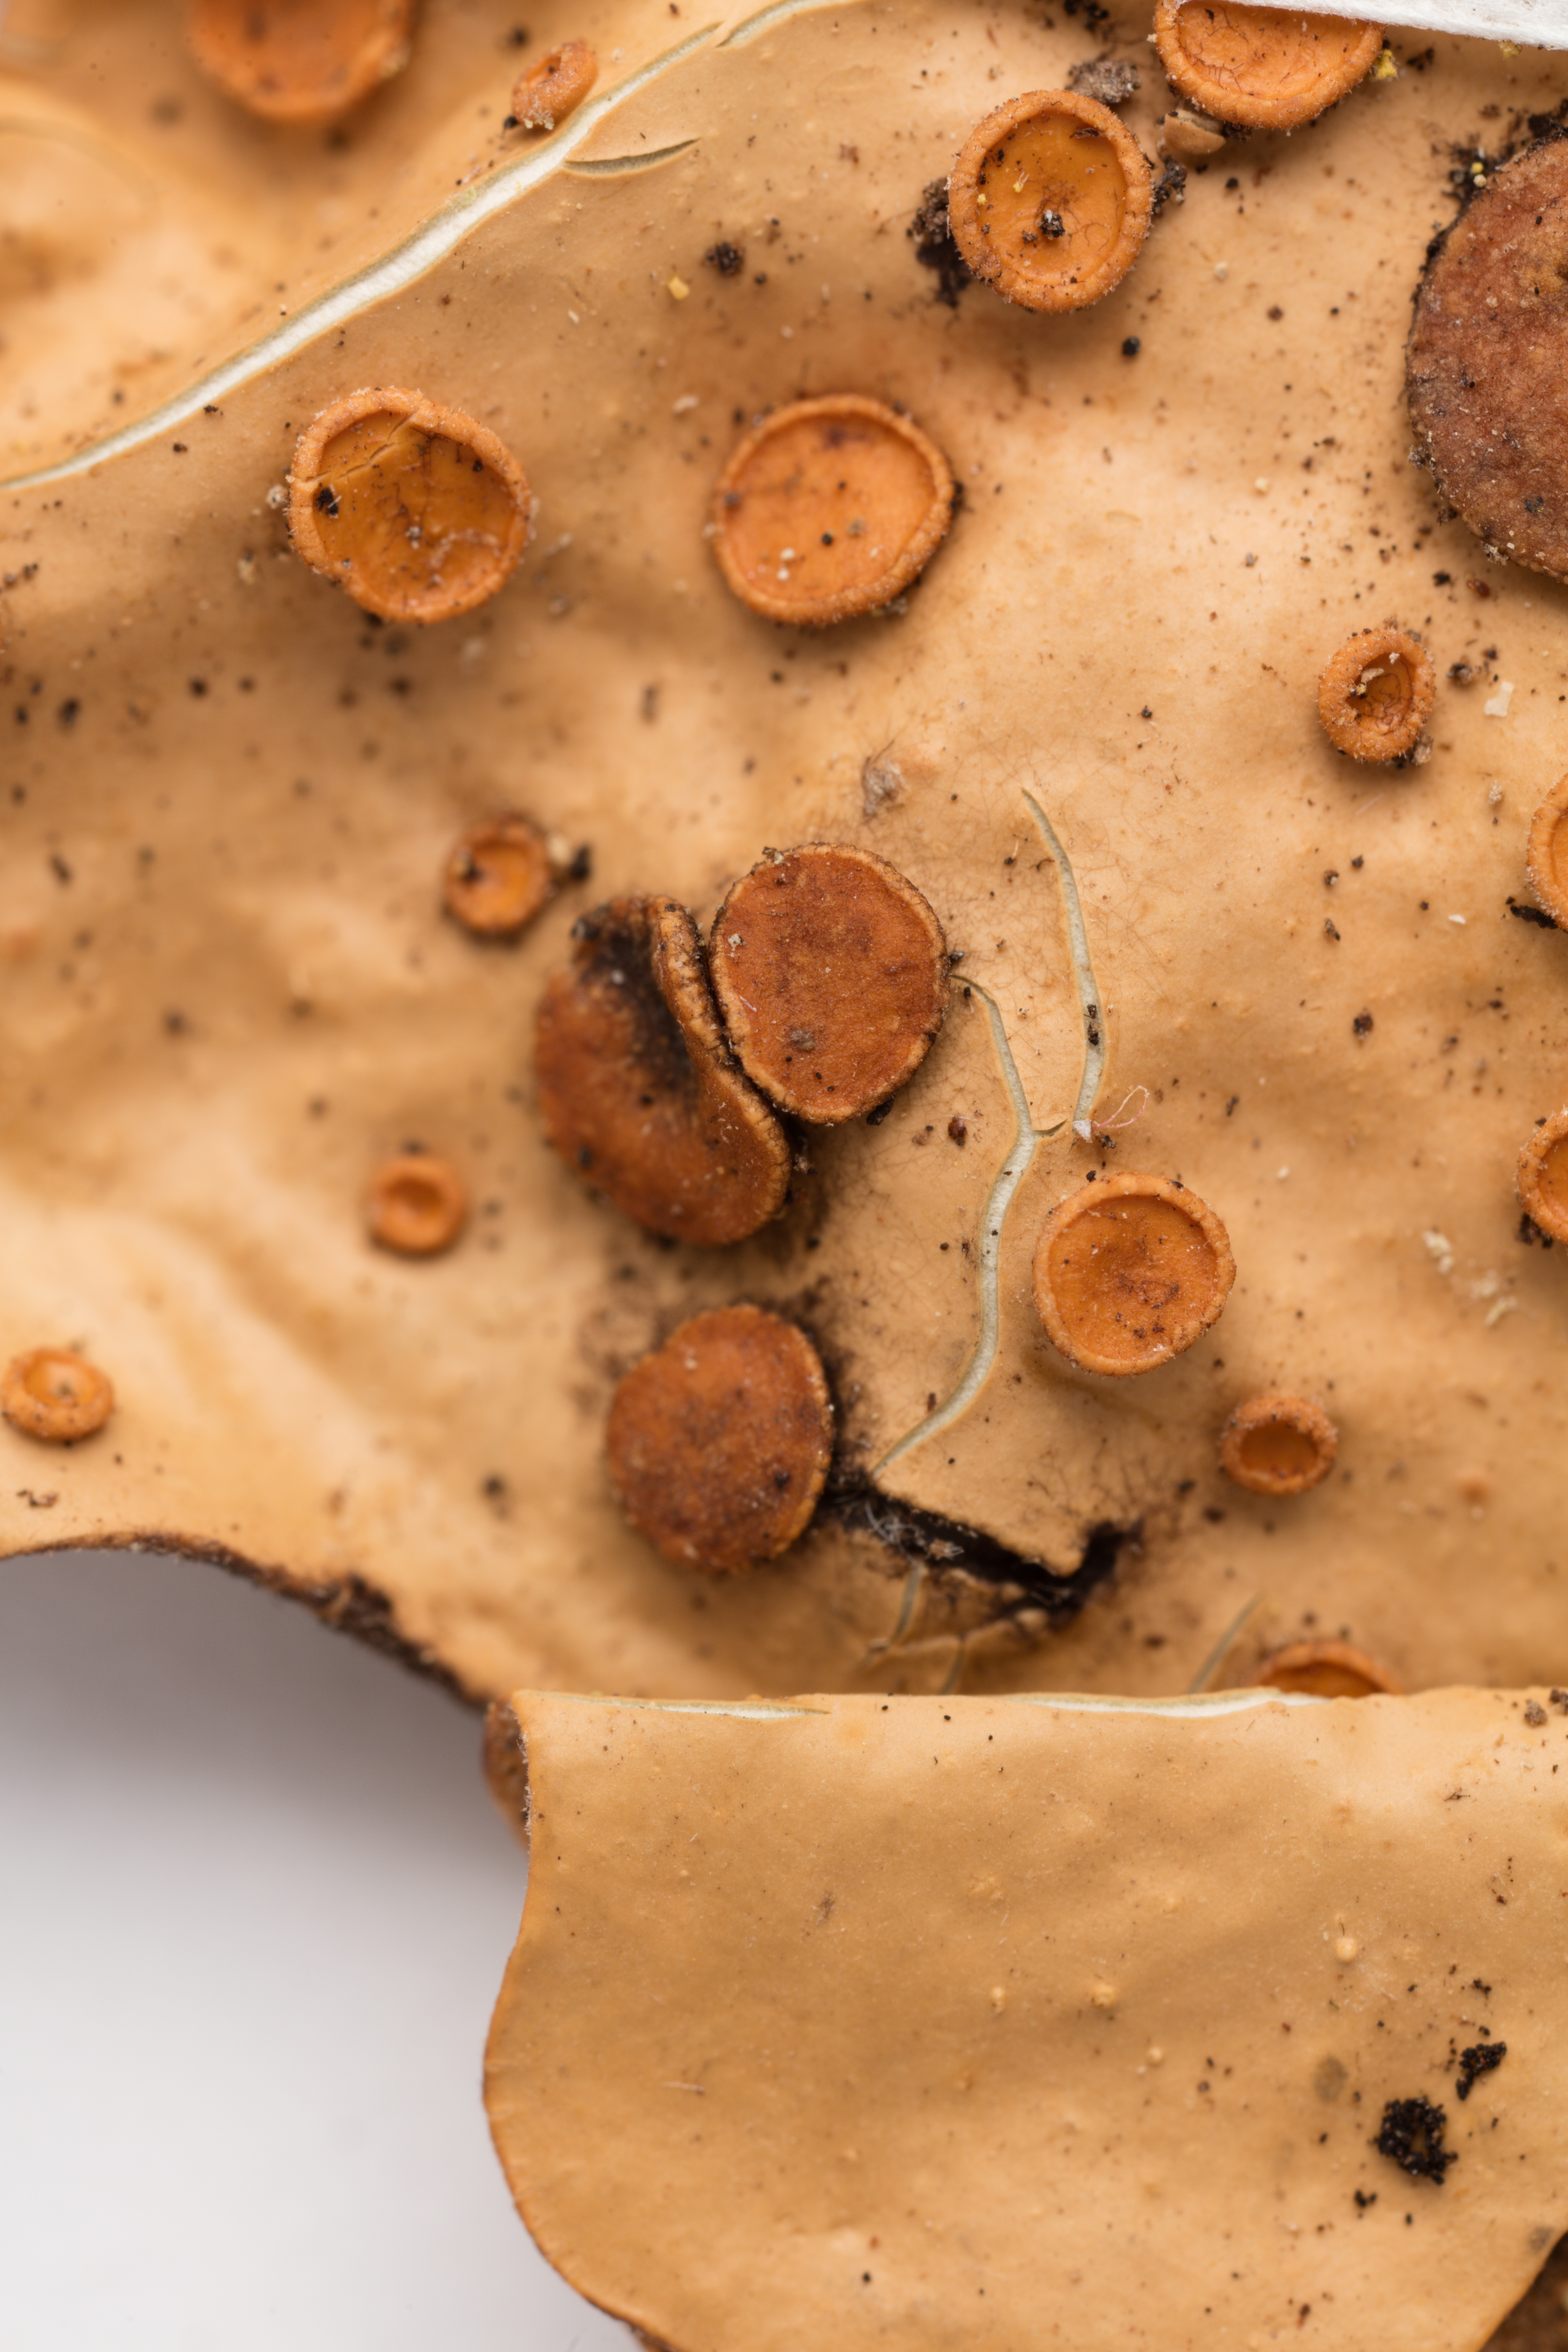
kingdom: Fungi
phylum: Ascomycota
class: Lecanoromycetes
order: Peltigerales
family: Lobariaceae
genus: Sticta
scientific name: Sticta latifrons
